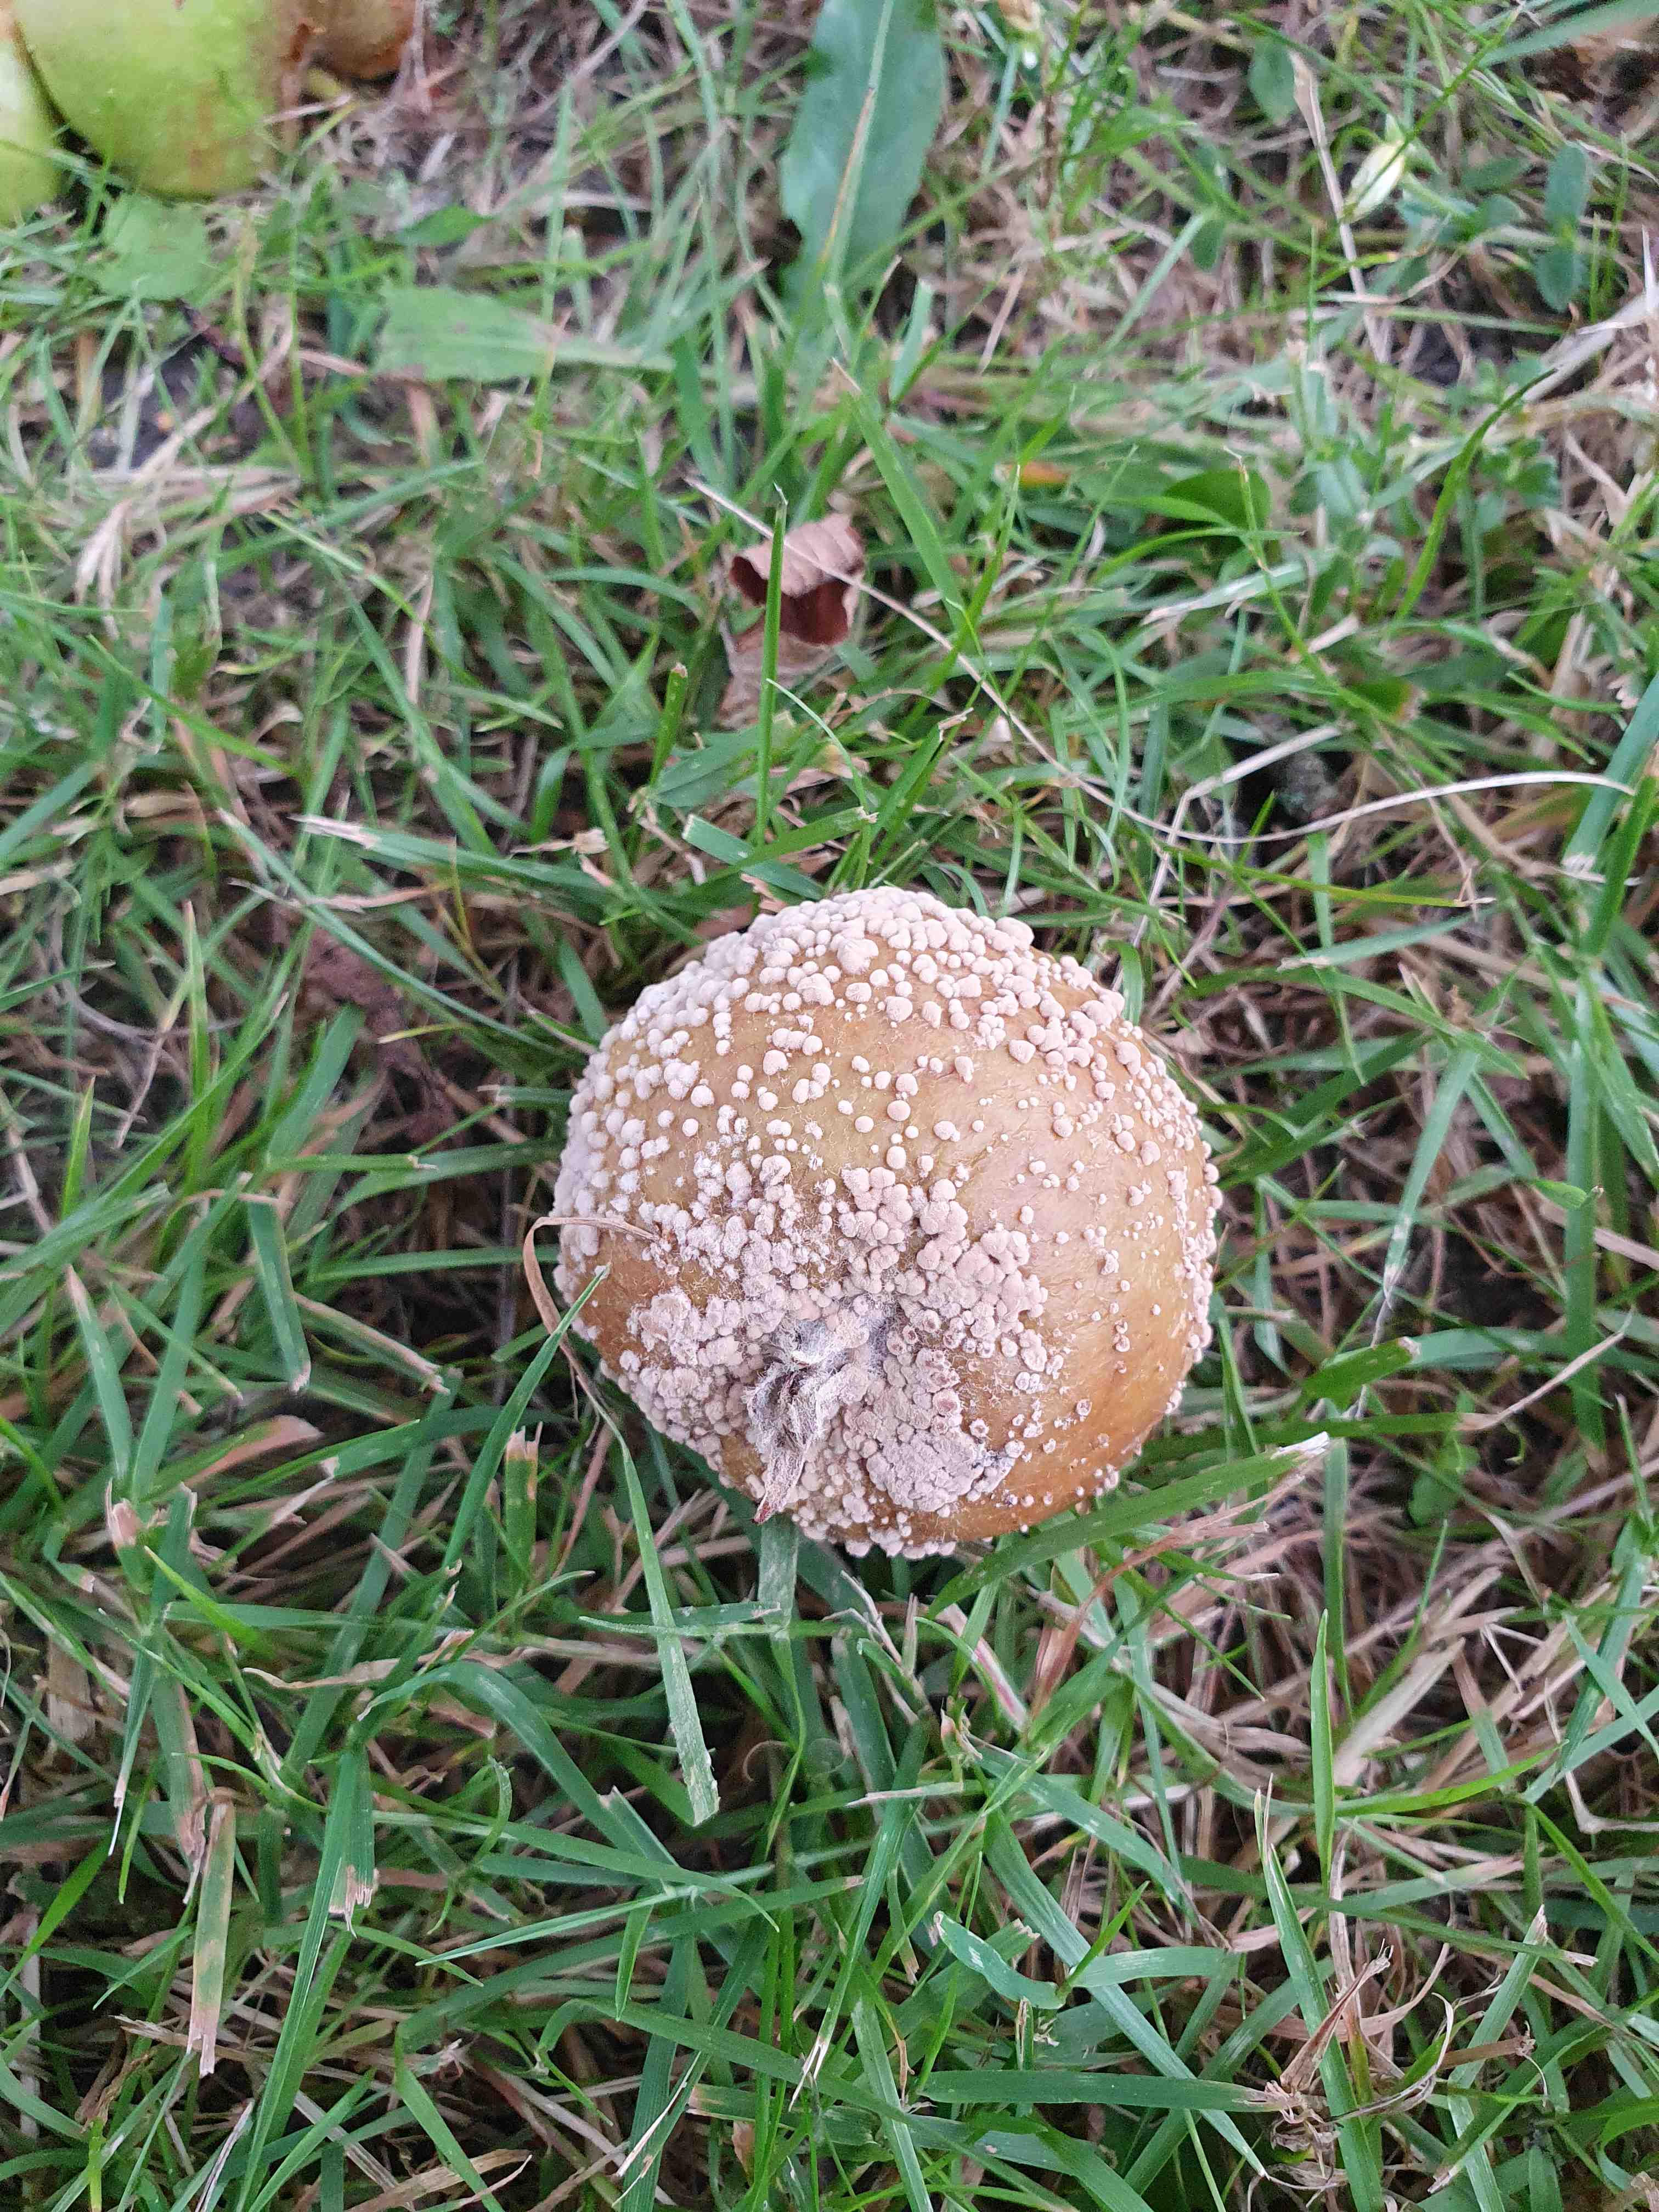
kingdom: Fungi
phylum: Ascomycota
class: Leotiomycetes
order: Helotiales
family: Sclerotiniaceae
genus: Monilinia
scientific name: Monilinia fructigena
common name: æble-knoldskive
